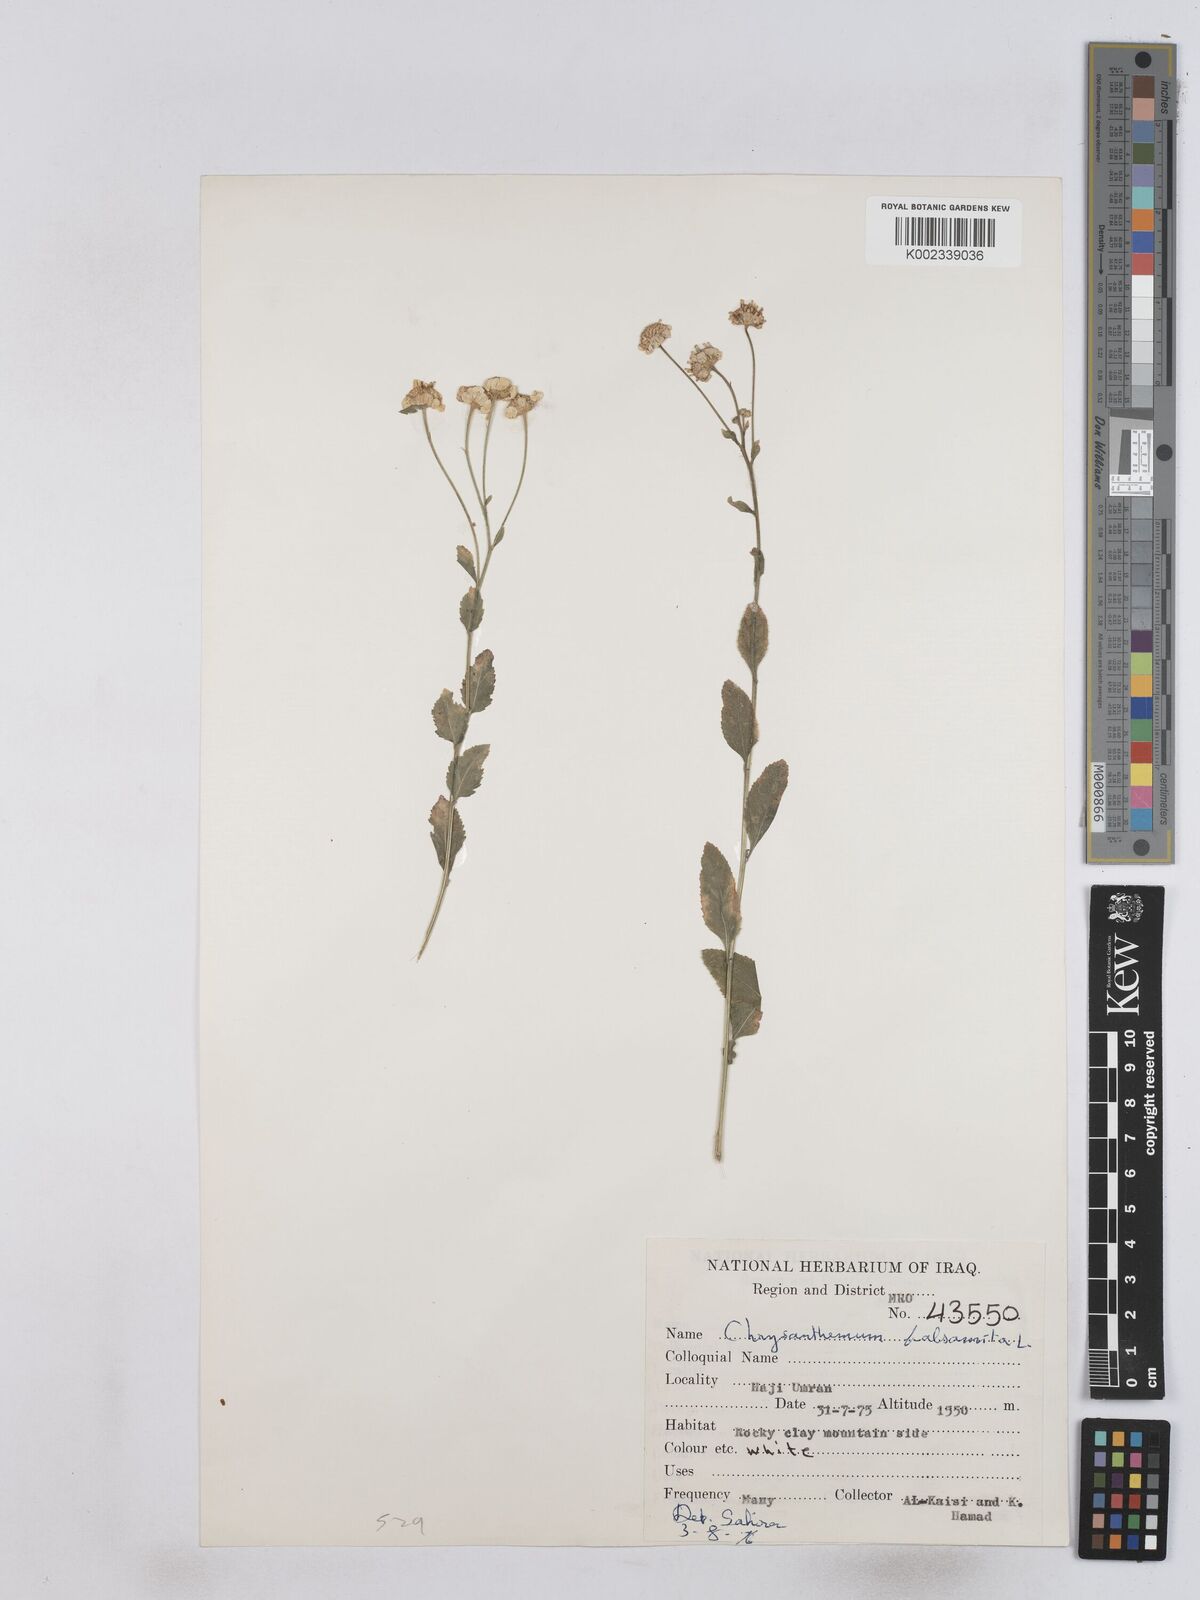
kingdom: Plantae
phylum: Tracheophyta
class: Magnoliopsida
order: Asterales
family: Asteraceae
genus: Tanacetum
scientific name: Tanacetum balsamitoides
